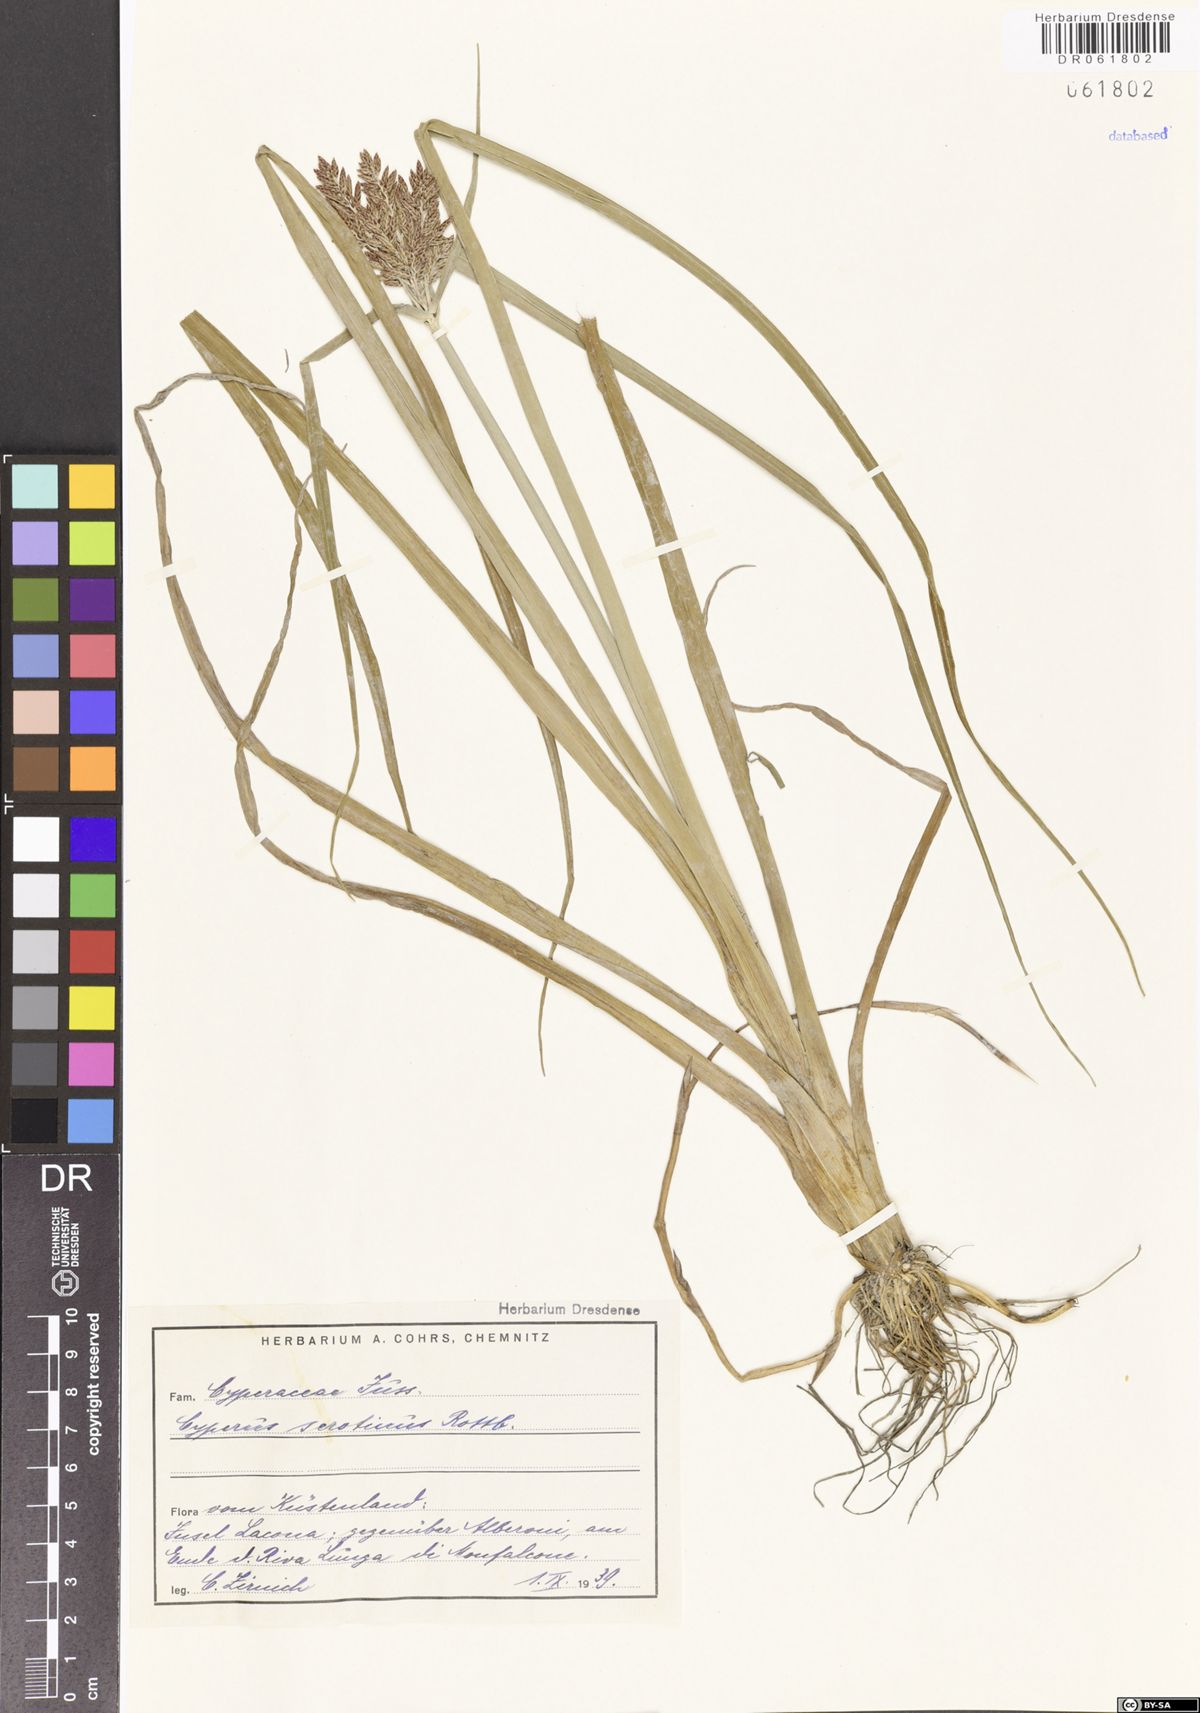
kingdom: Plantae
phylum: Tracheophyta
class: Liliopsida
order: Poales
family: Cyperaceae
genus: Cyperus
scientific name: Cyperus serotinus
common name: Tidalmarsh flatsedge
